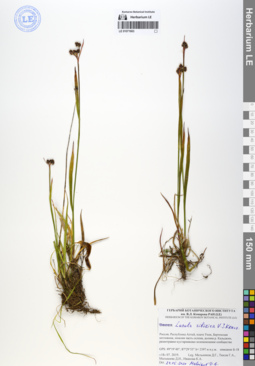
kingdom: Plantae
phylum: Tracheophyta
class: Liliopsida
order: Poales
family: Juncaceae
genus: Luzula
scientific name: Luzula multiflora
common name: Heath wood-rush
